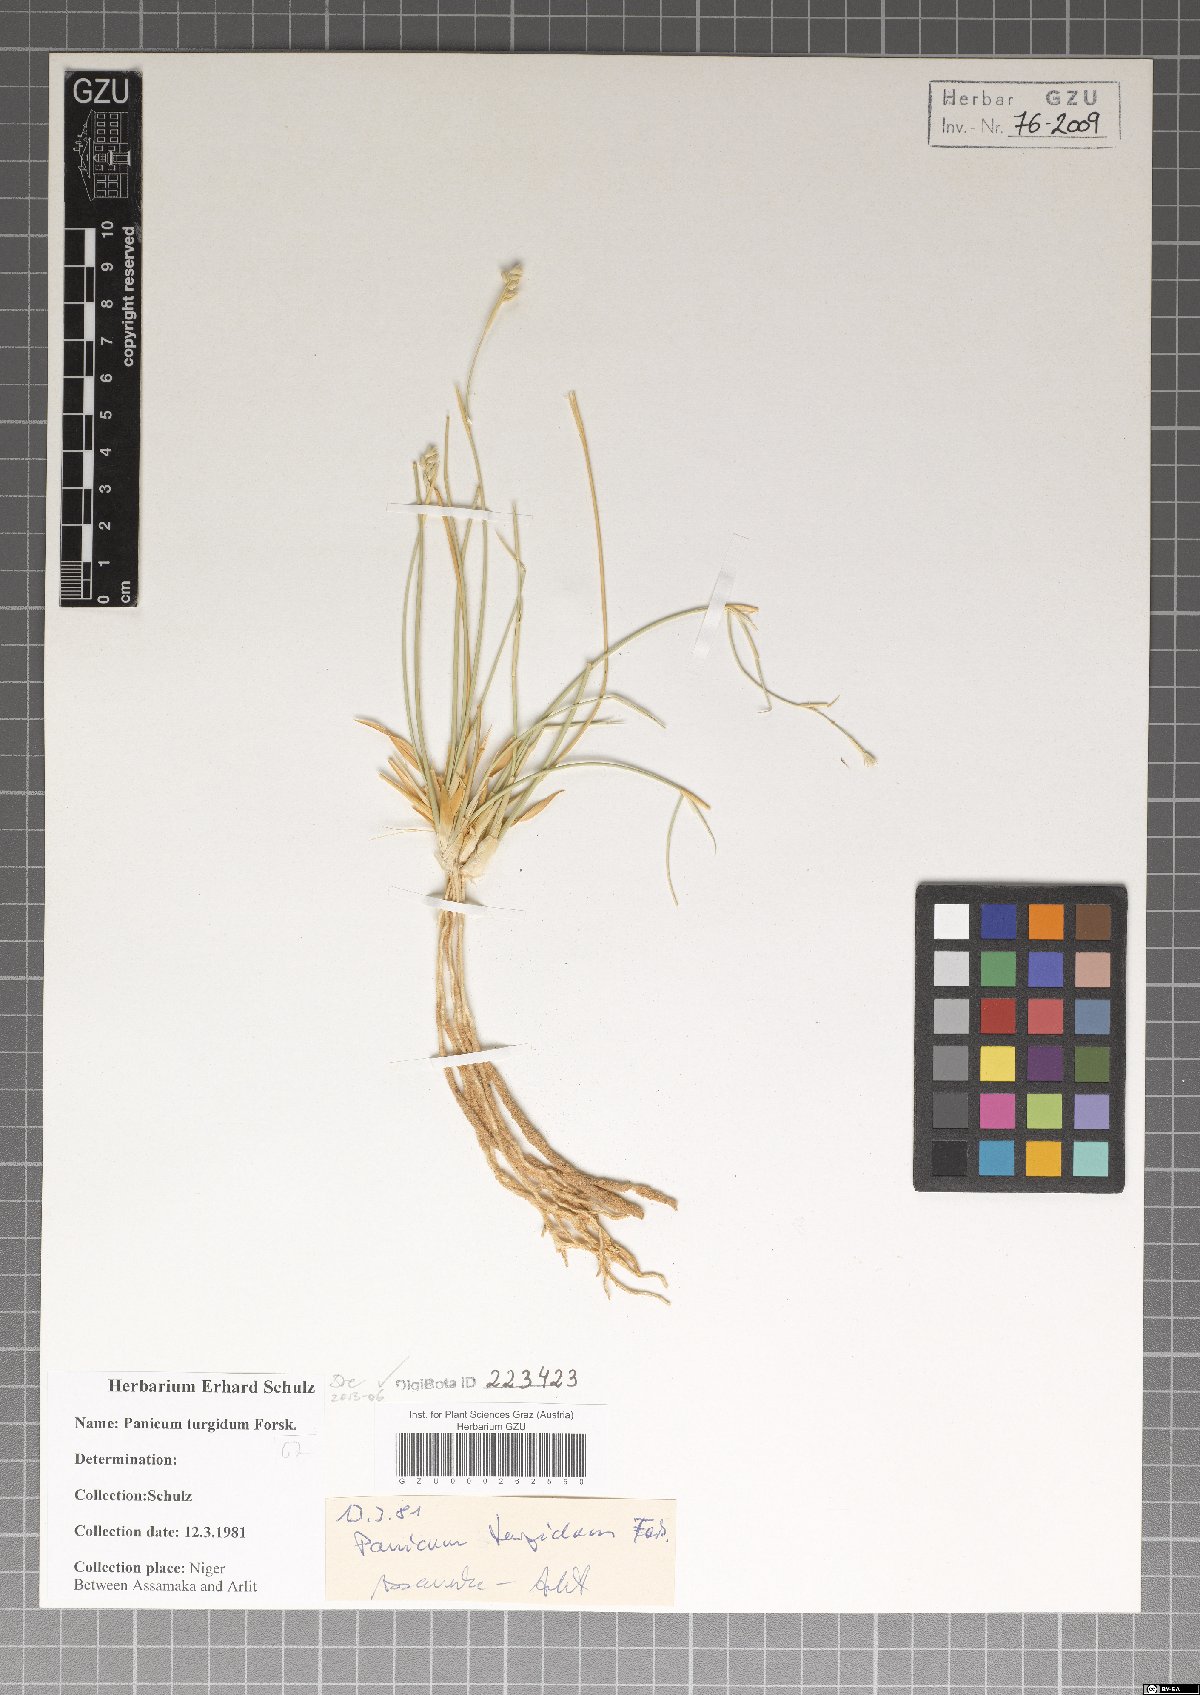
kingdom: Plantae
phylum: Tracheophyta
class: Liliopsida
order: Poales
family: Poaceae
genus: Panicum
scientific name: Panicum turgidum
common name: Desert grass
